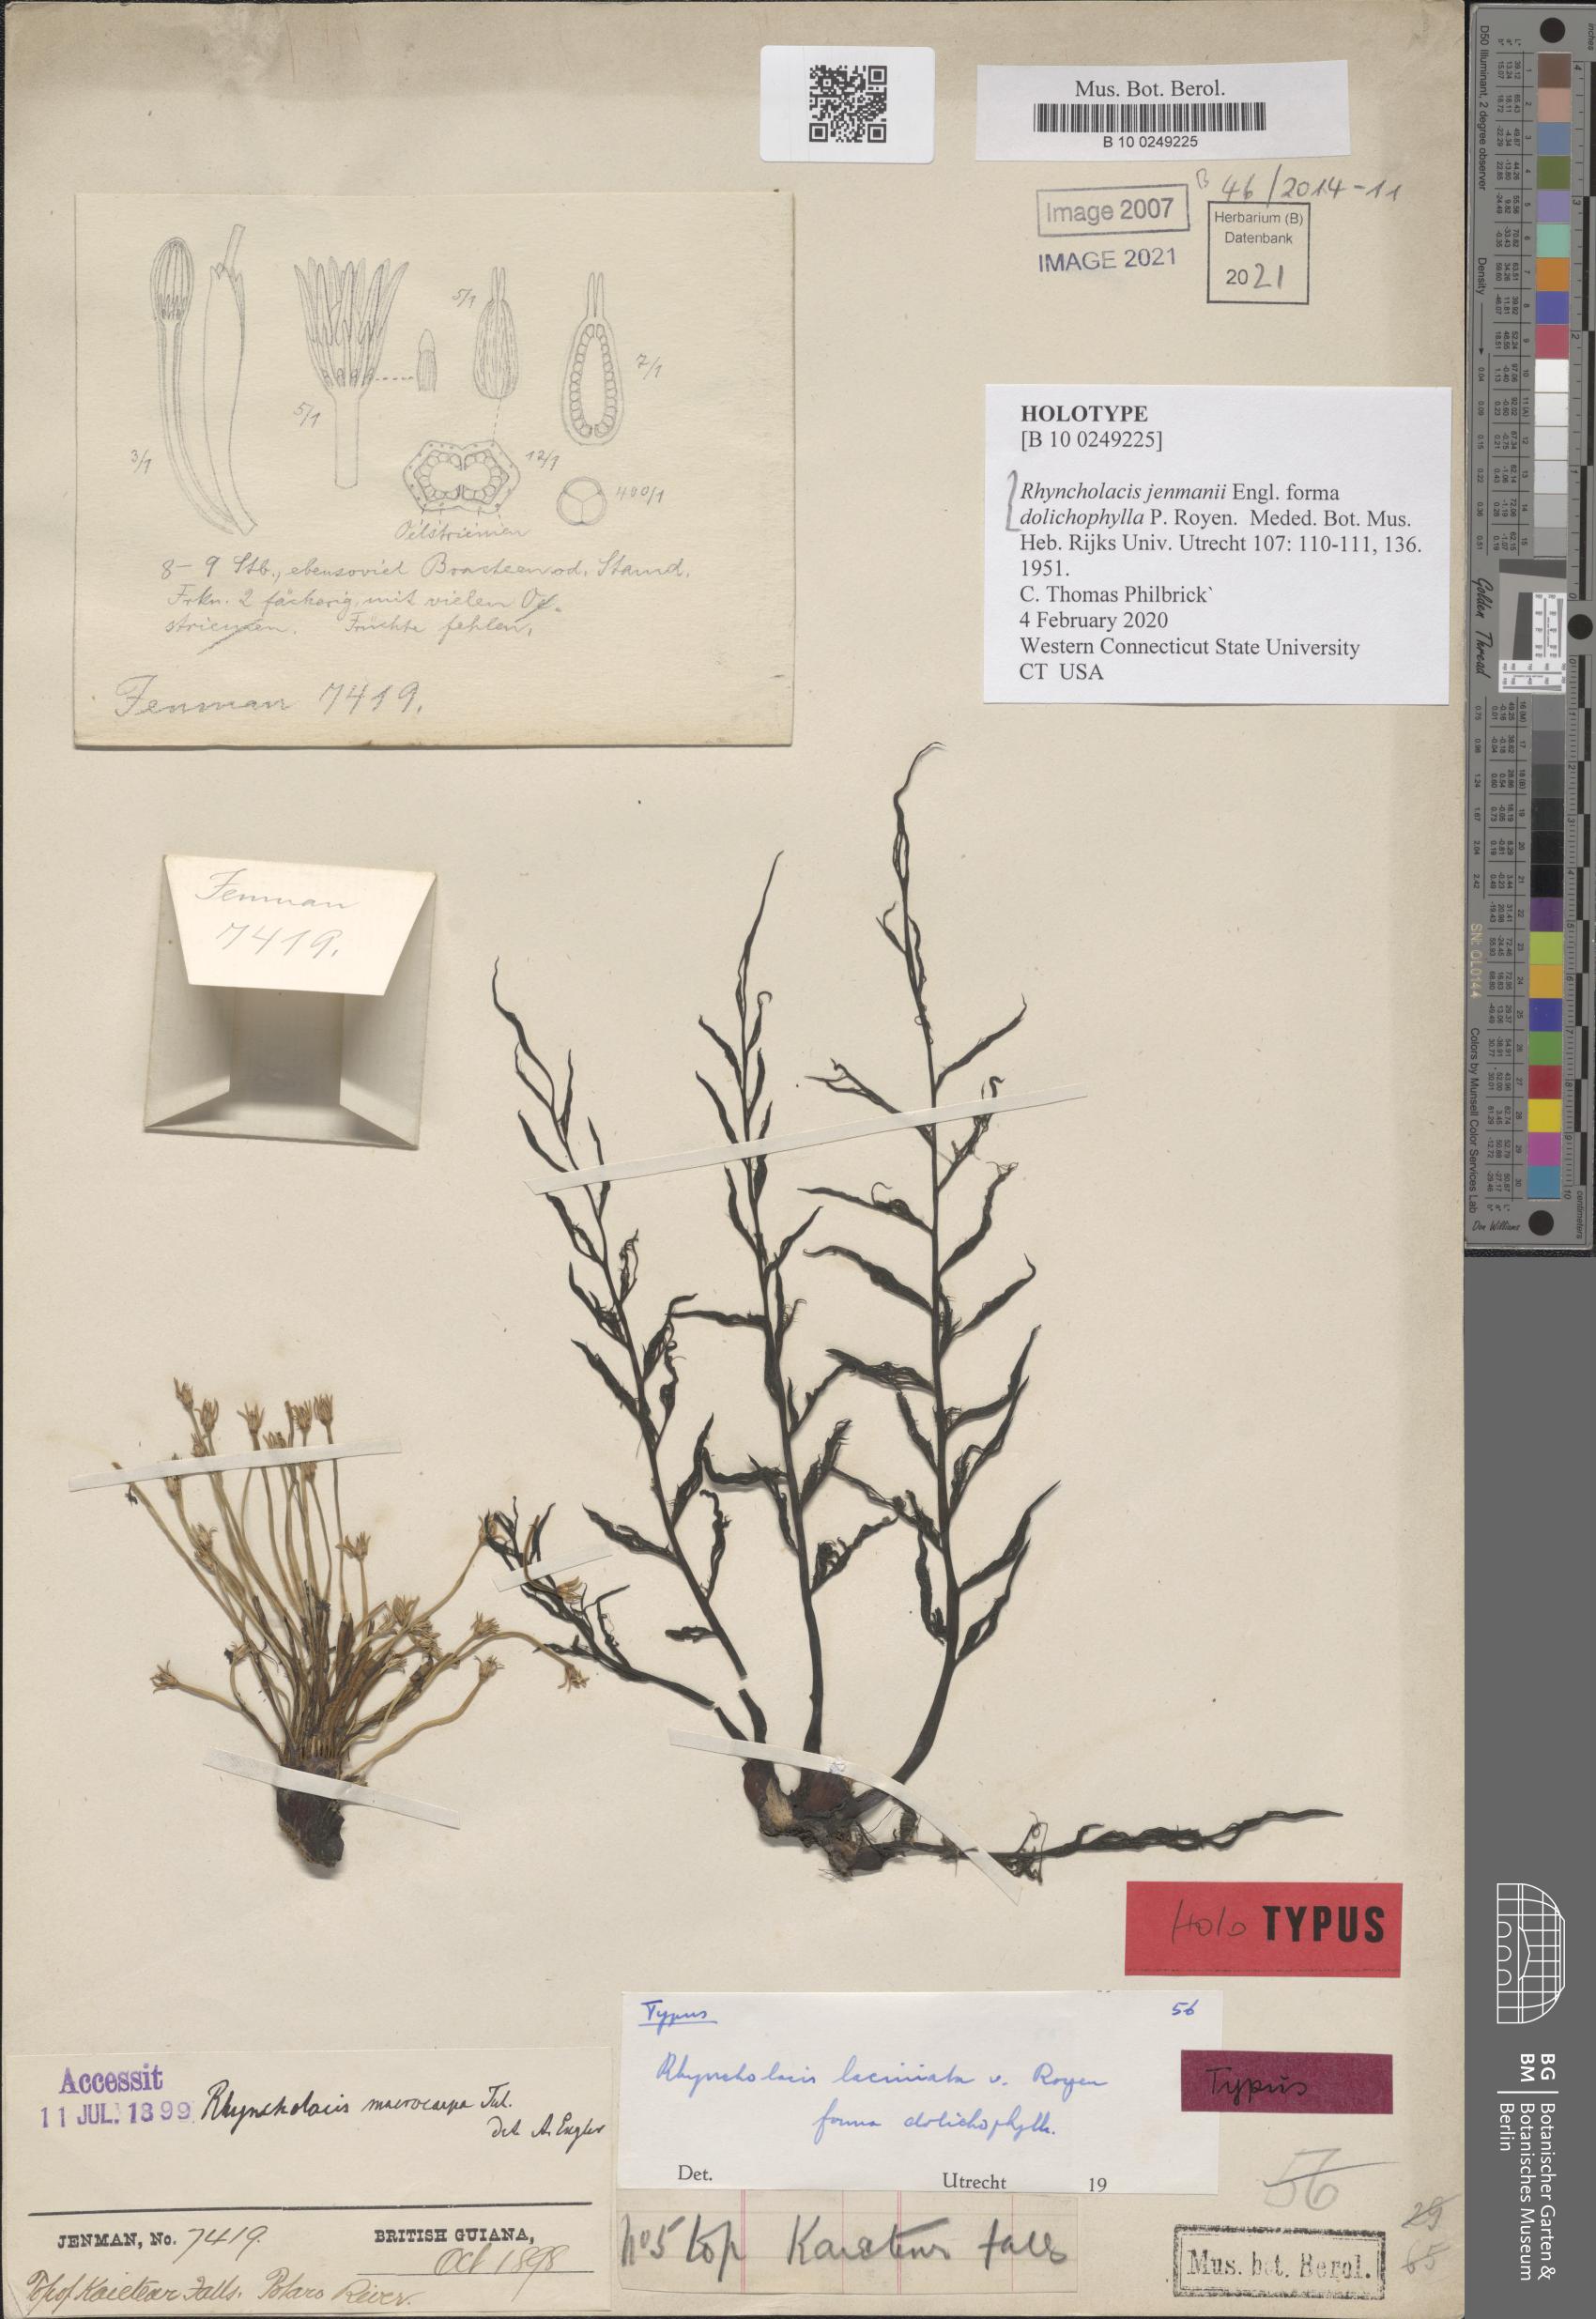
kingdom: Plantae
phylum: Tracheophyta
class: Magnoliopsida
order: Malpighiales
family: Podostemaceae
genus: Rhyncholacis
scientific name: Rhyncholacis jenmanii
